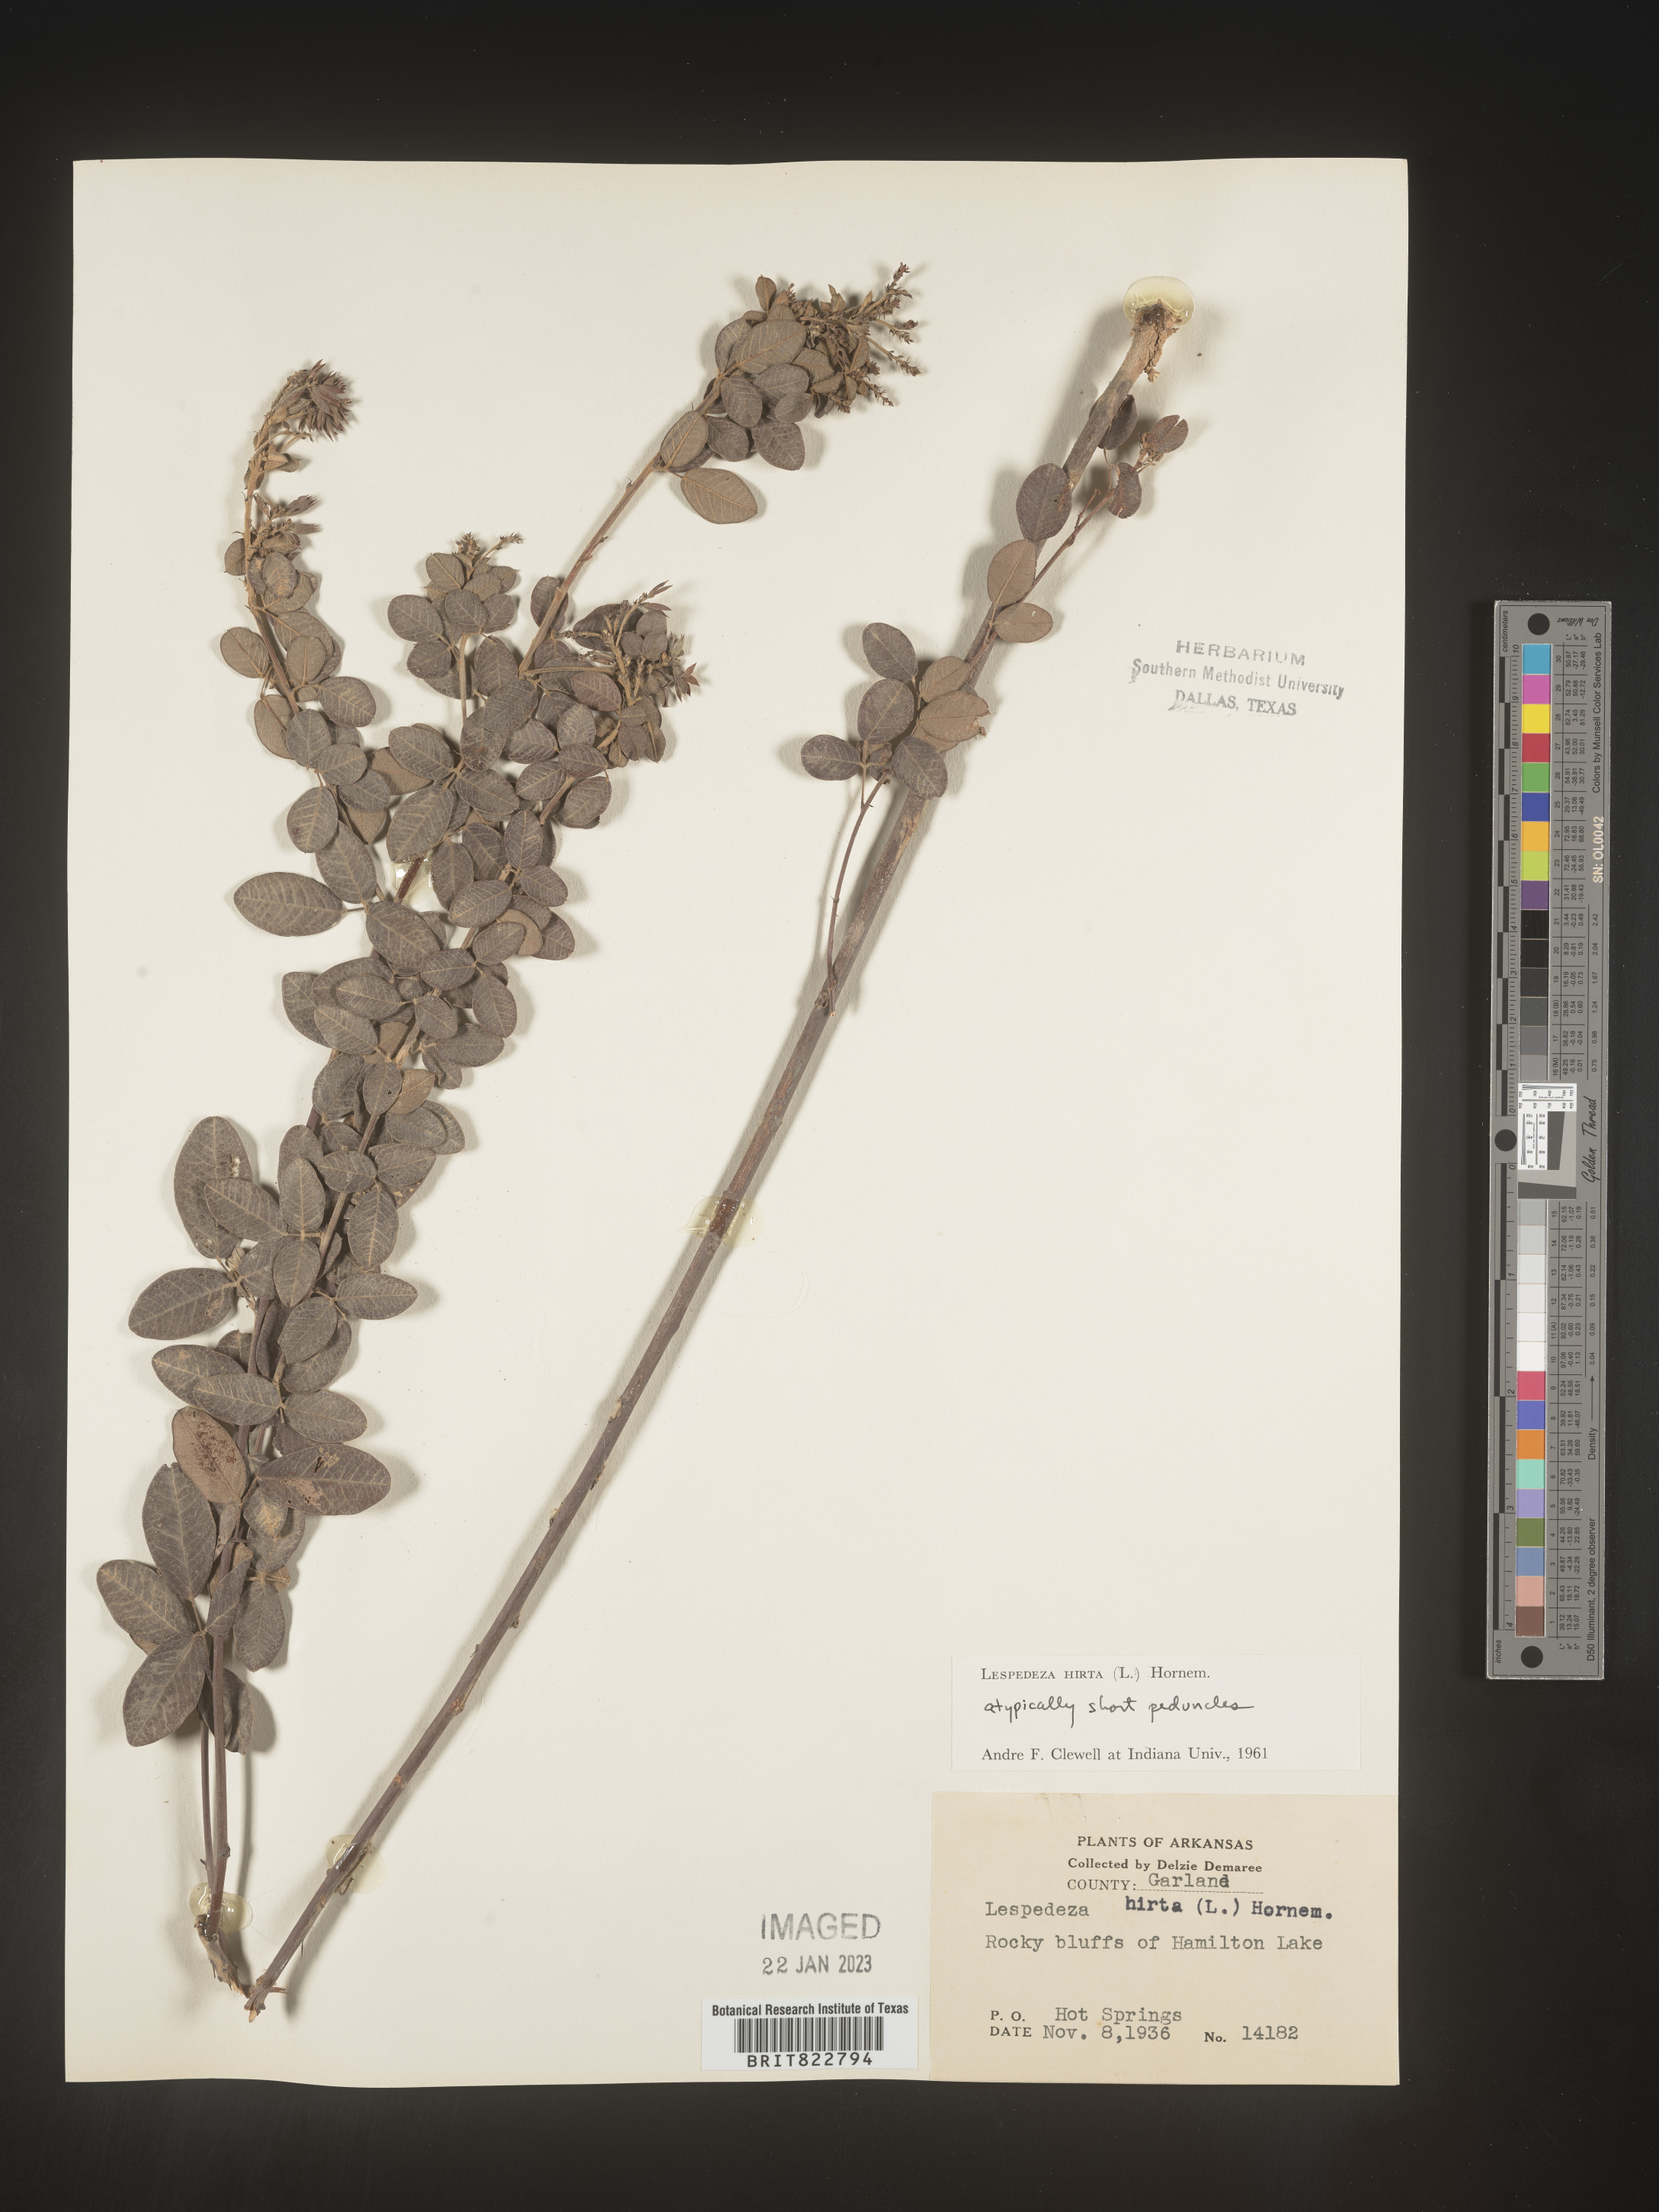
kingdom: Plantae
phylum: Tracheophyta
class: Magnoliopsida
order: Fabales
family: Fabaceae
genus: Lespedeza
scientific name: Lespedeza hirta
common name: Hairy lespedeza
